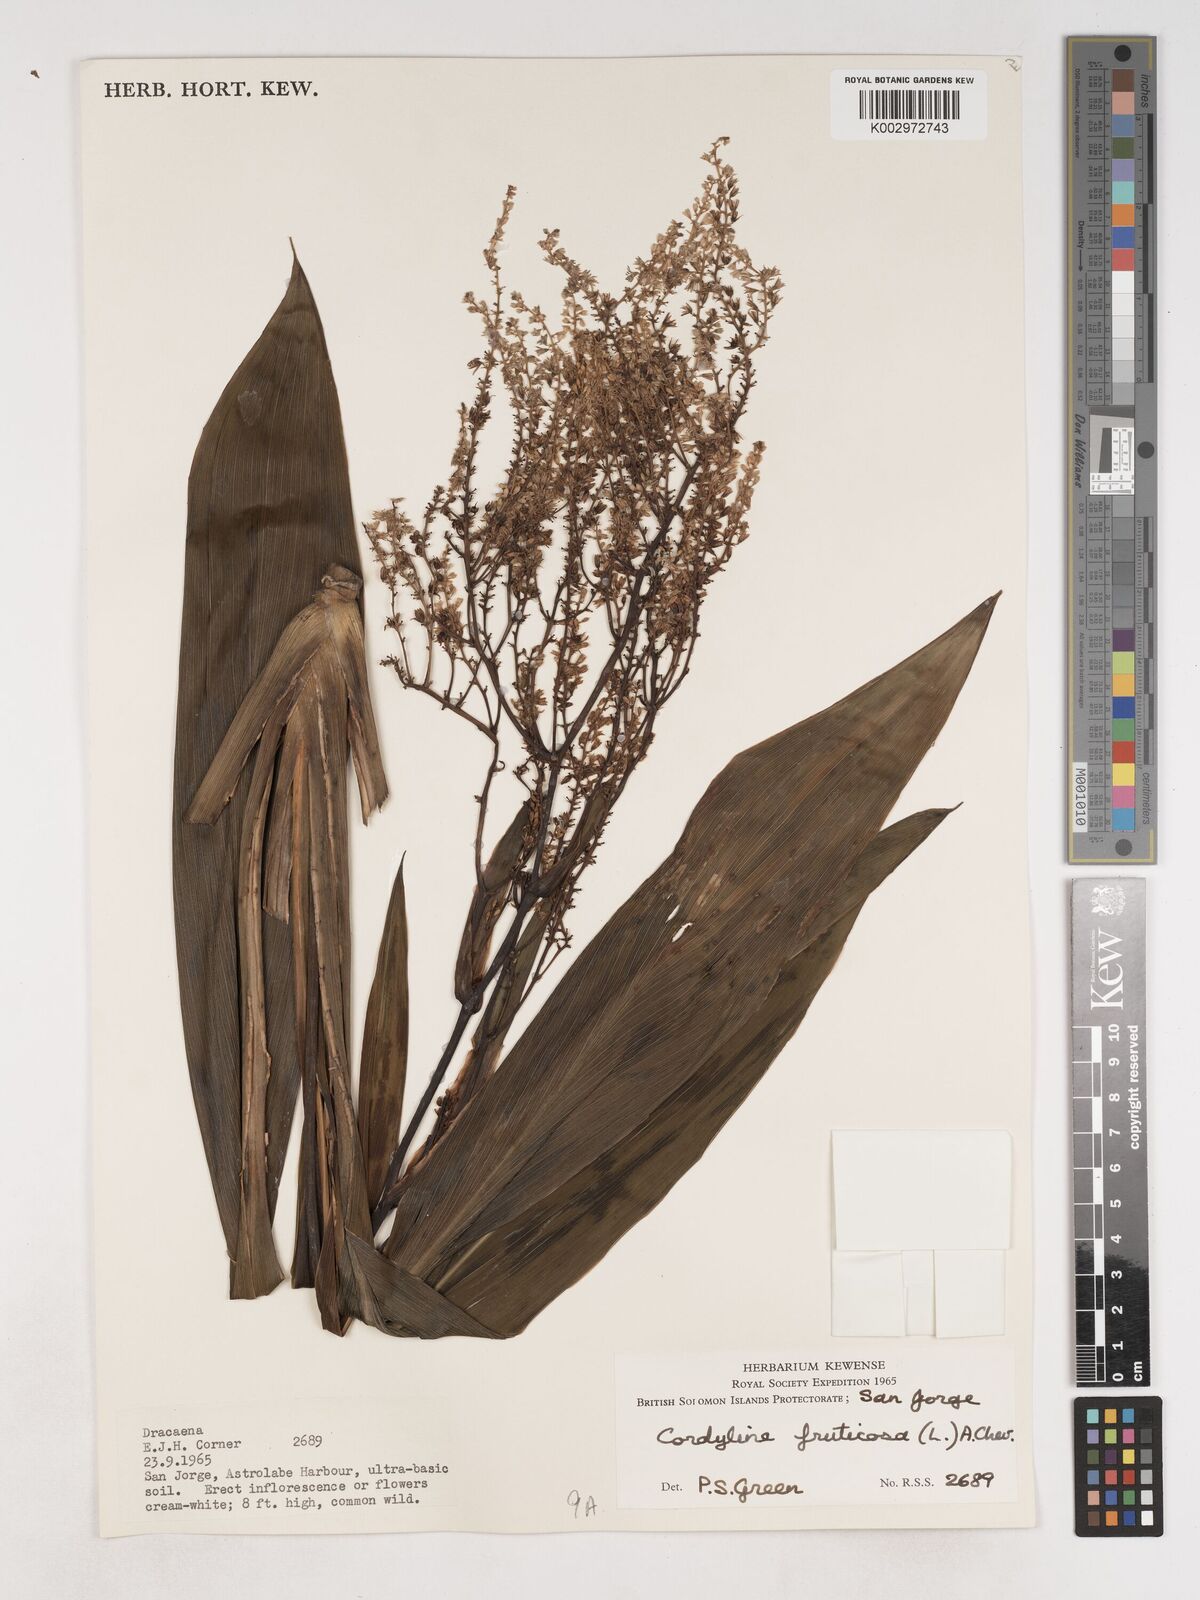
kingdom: Plantae
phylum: Tracheophyta
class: Liliopsida
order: Asparagales
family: Asparagaceae
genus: Cordyline
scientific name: Cordyline fruticosa
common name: Good-luck-plant
